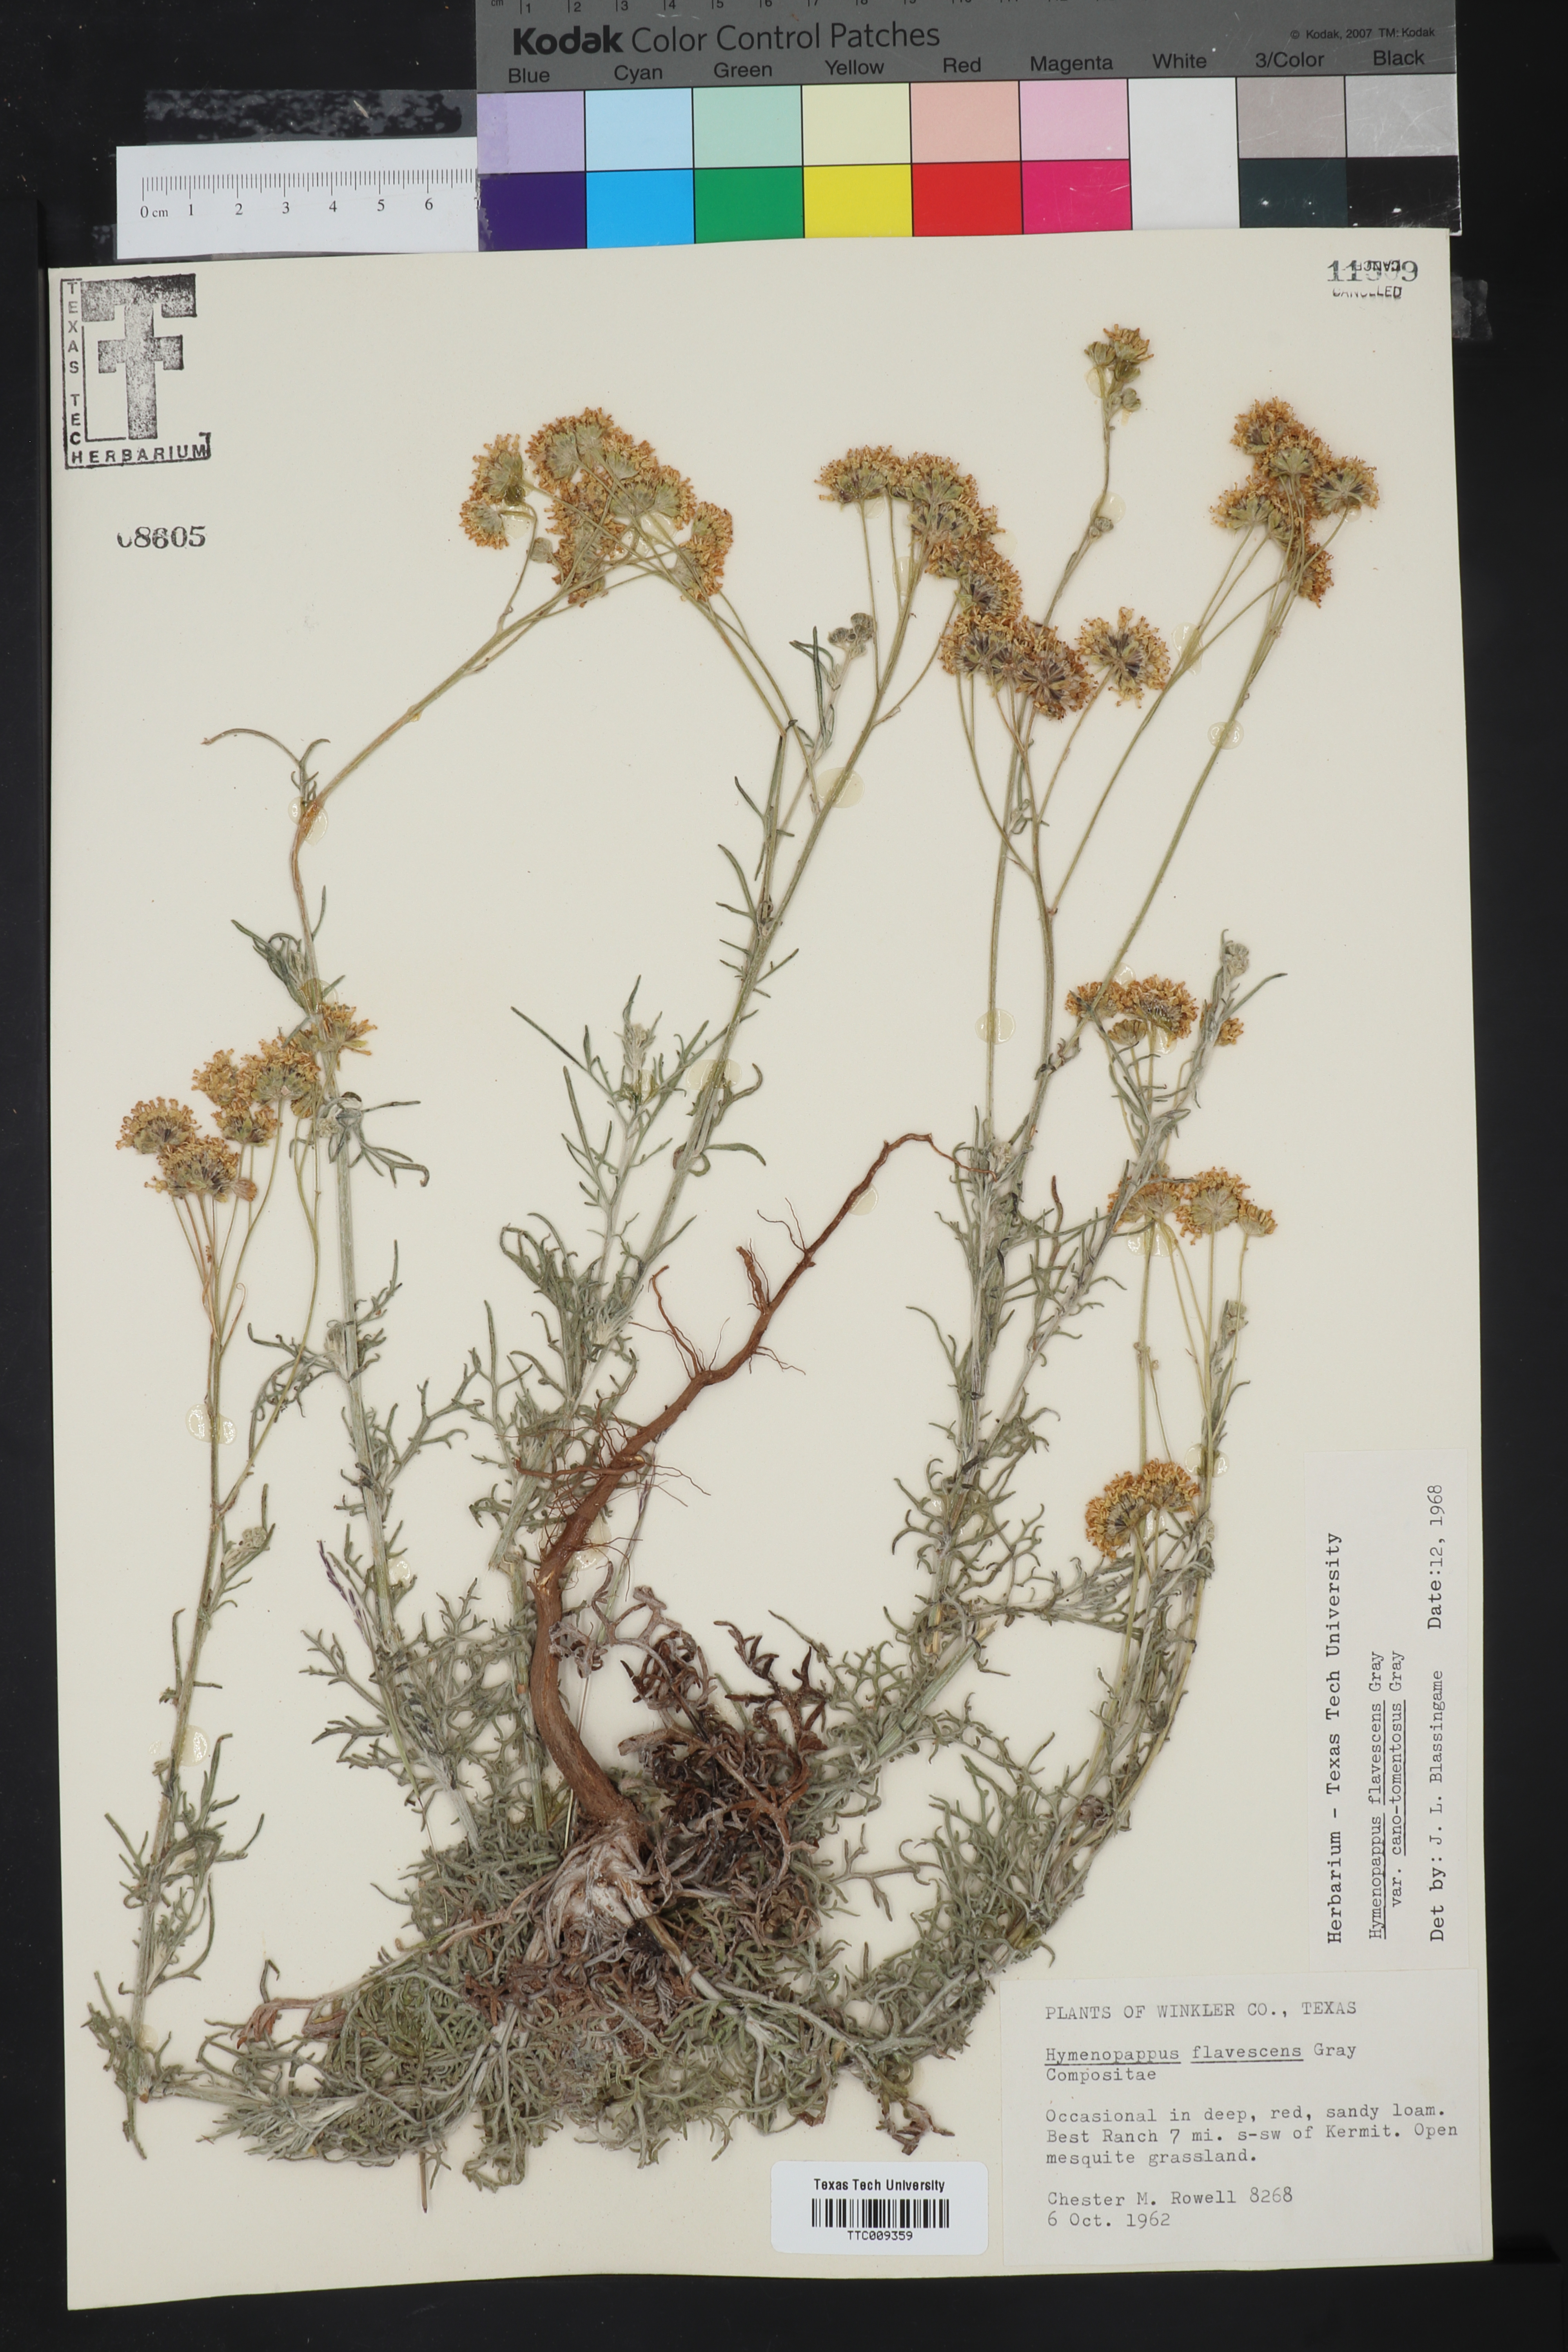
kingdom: Plantae
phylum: Tracheophyta
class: Magnoliopsida
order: Asterales
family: Asteraceae
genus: Hymenopappus
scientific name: Hymenopappus flavescens
